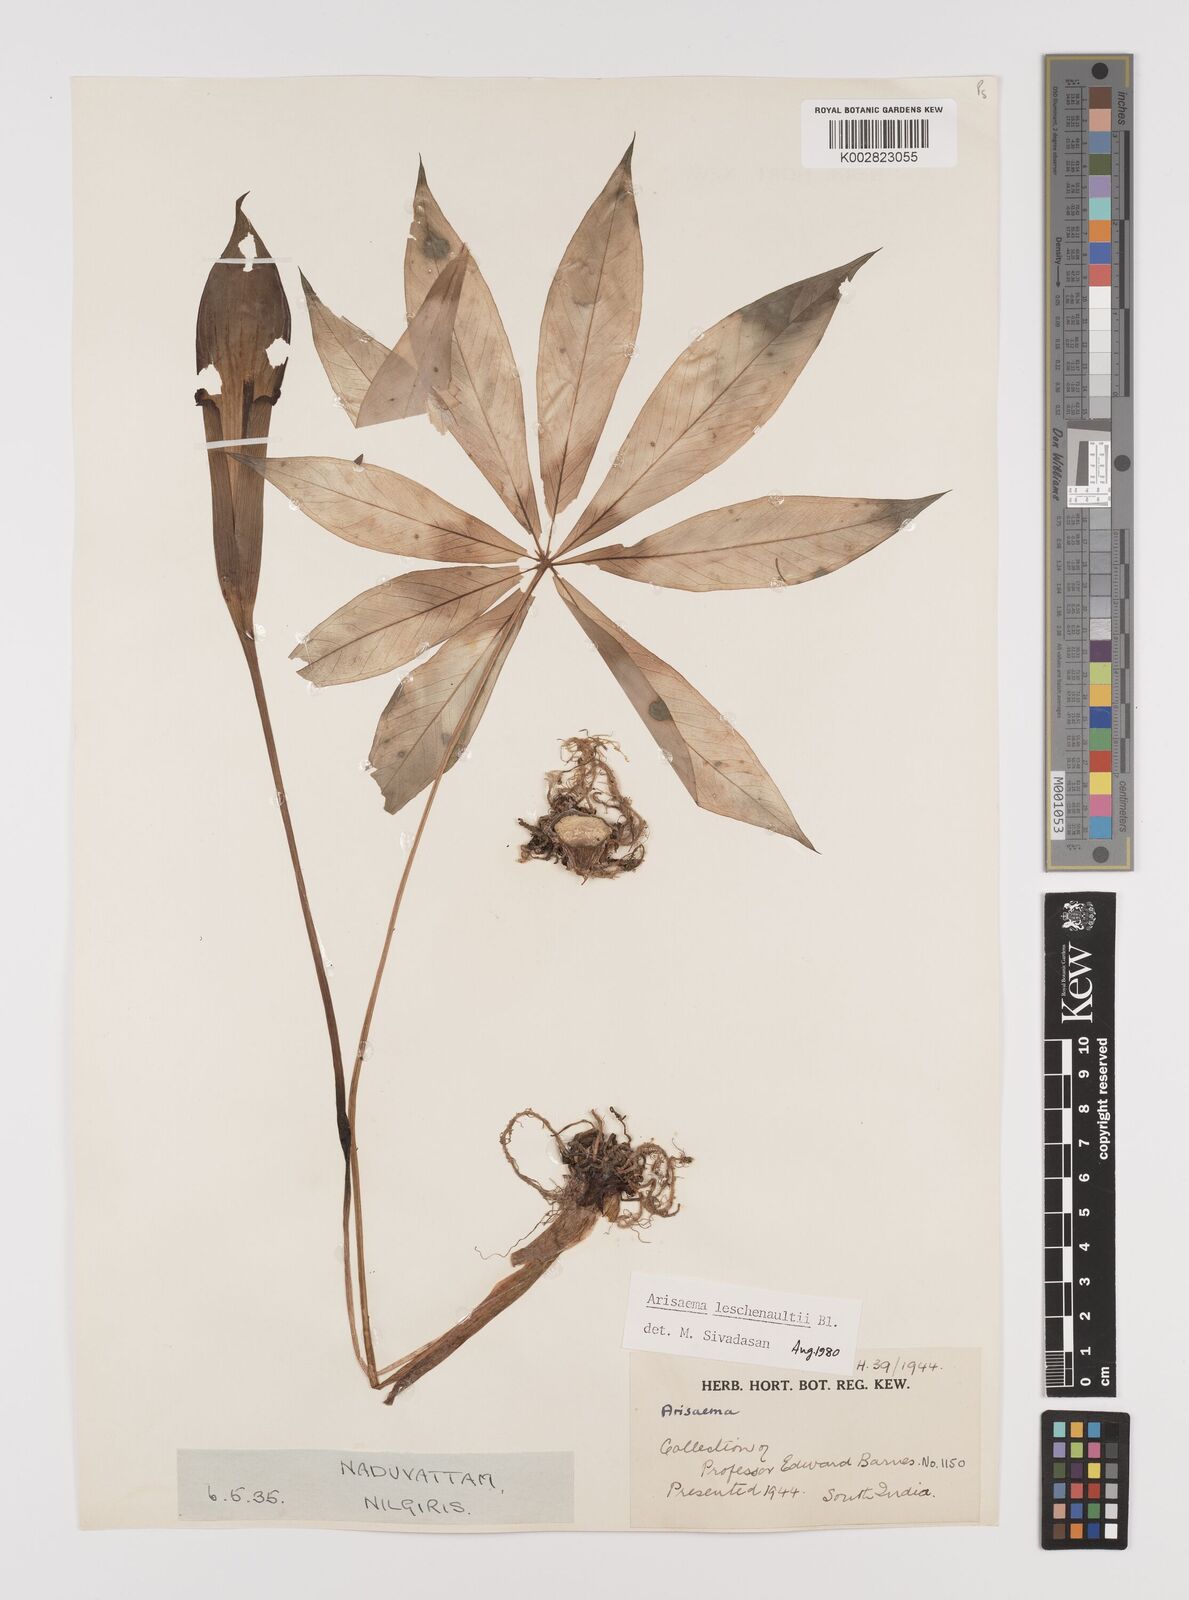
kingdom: Plantae
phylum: Tracheophyta
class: Liliopsida
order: Alismatales
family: Araceae
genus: Arisaema
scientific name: Arisaema leschenaultii
